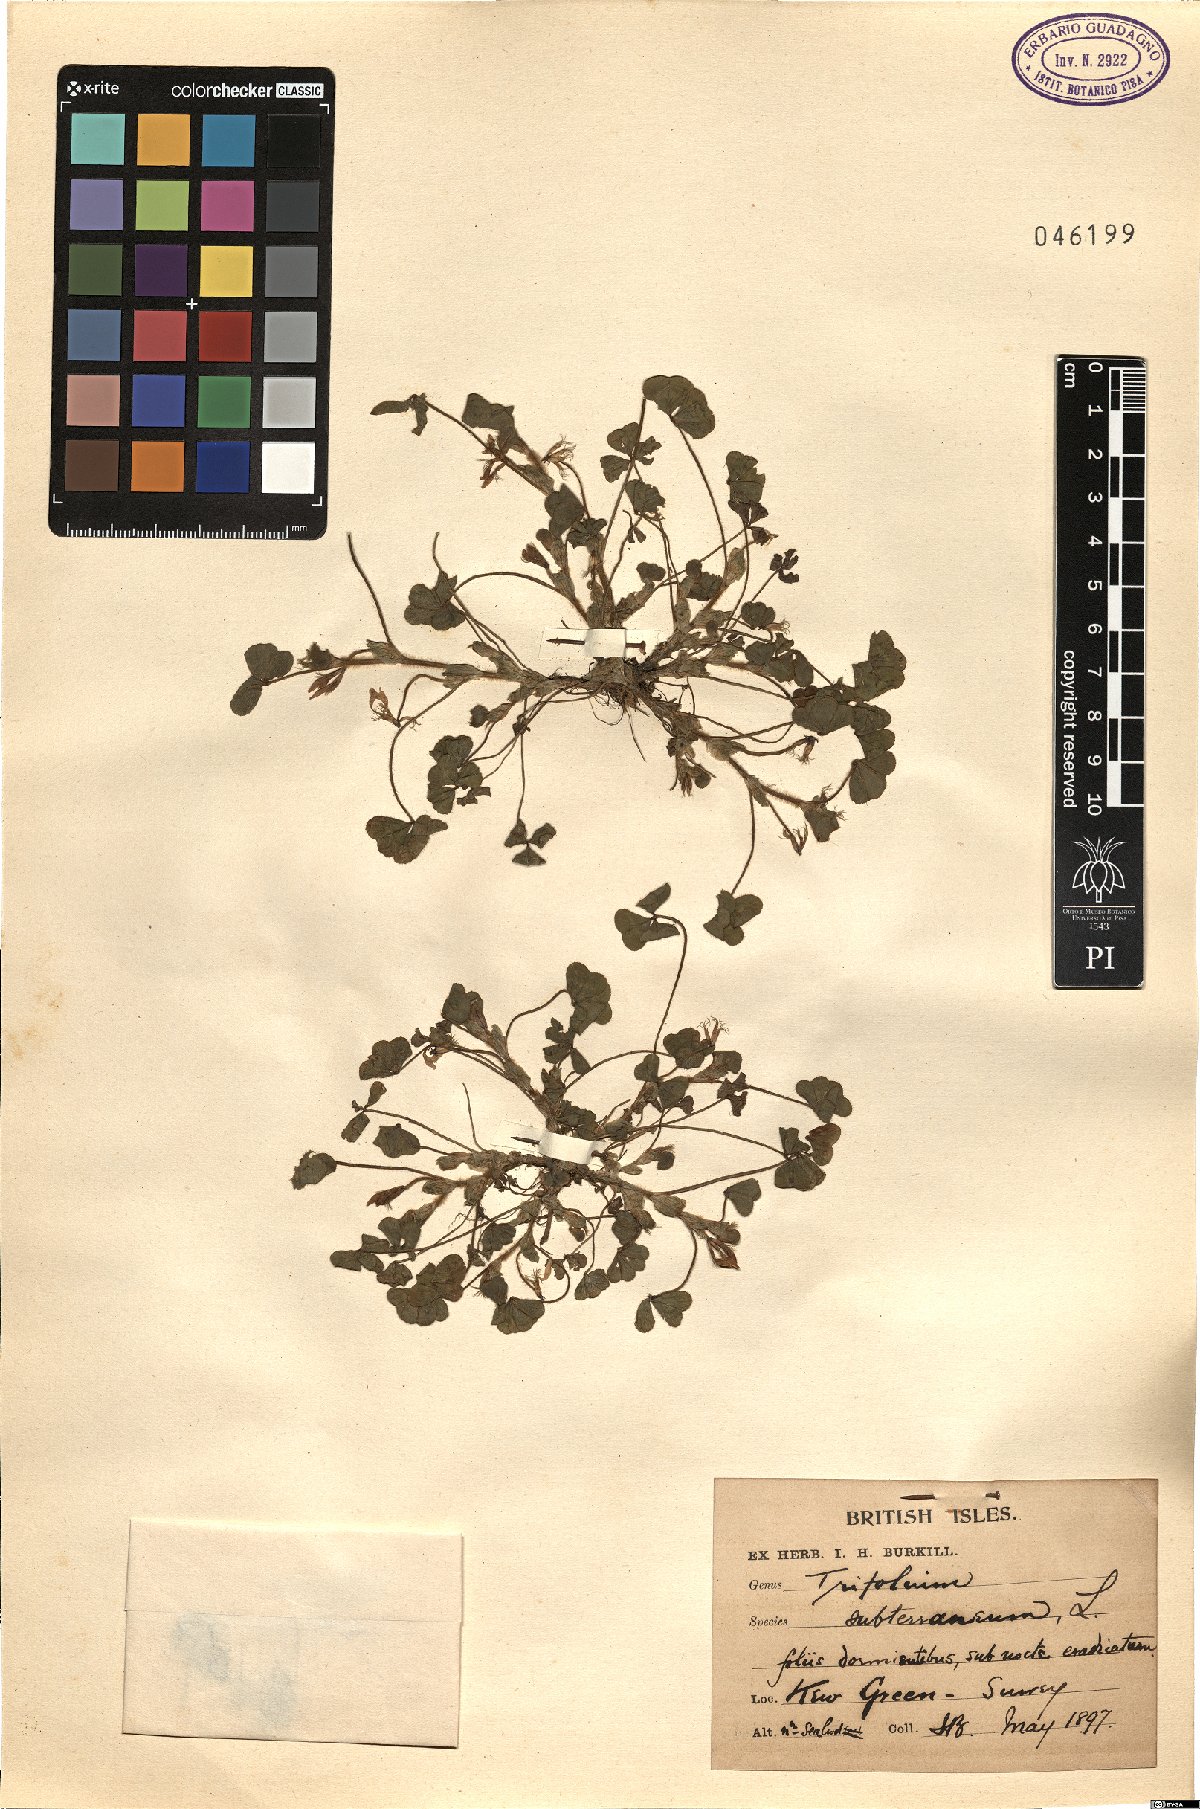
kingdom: Plantae
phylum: Tracheophyta
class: Magnoliopsida
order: Fabales
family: Fabaceae
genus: Trifolium
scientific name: Trifolium subterraneum
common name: Subterranean clover
